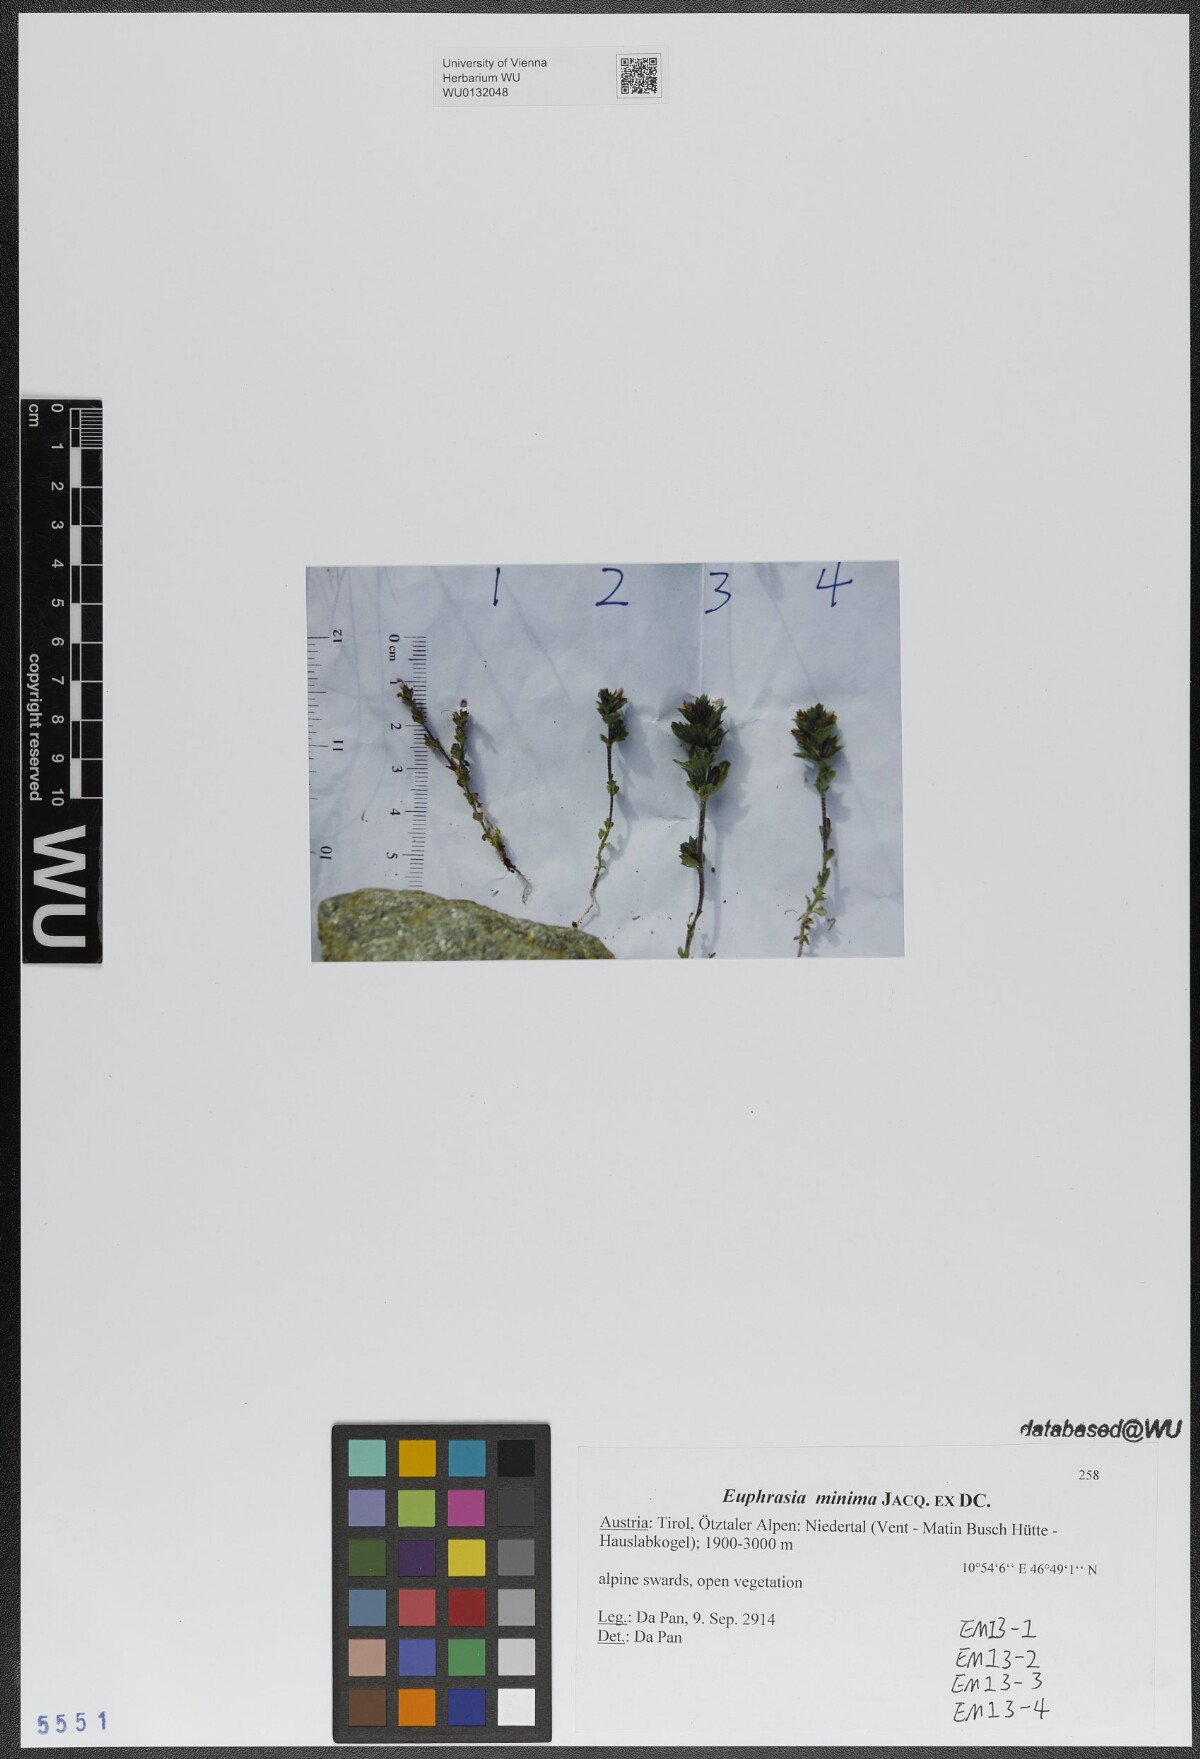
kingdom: Plantae
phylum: Tracheophyta
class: Magnoliopsida
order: Lamiales
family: Orobanchaceae
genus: Euphrasia
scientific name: Euphrasia minima
